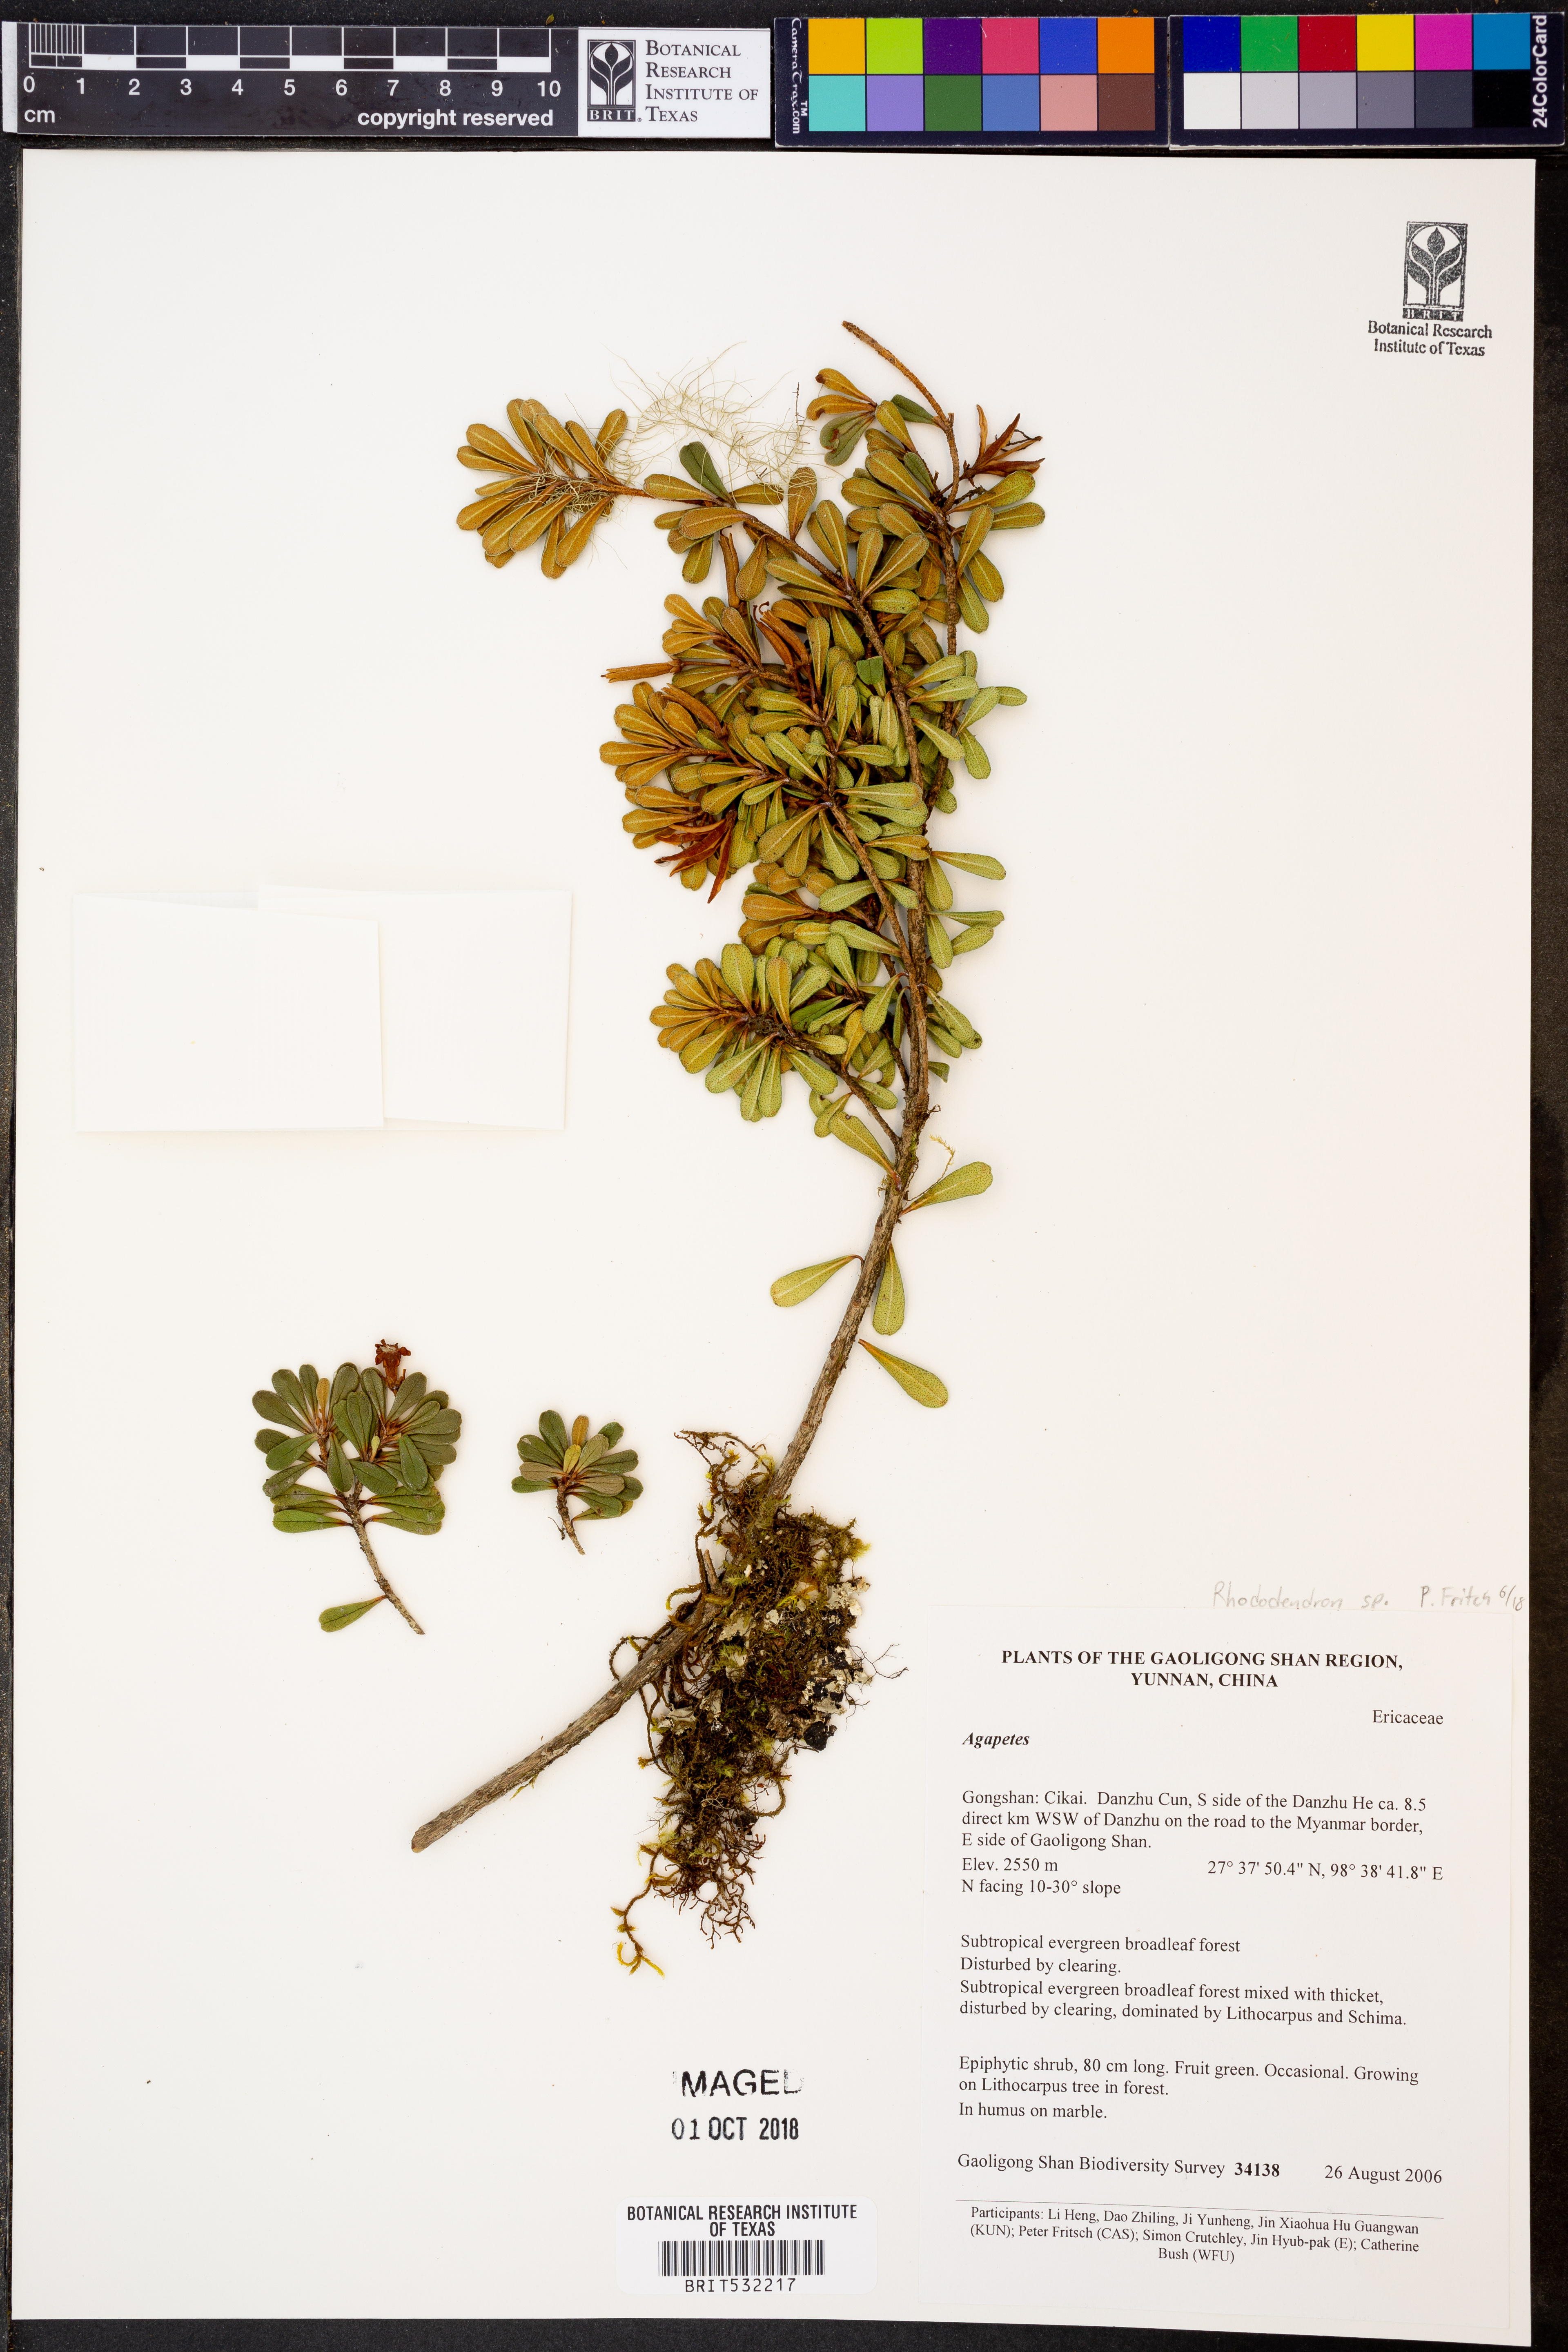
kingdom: Plantae
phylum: Tracheophyta
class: Magnoliopsida
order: Ericales
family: Ericaceae
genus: Rhododendron
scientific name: Rhododendron
